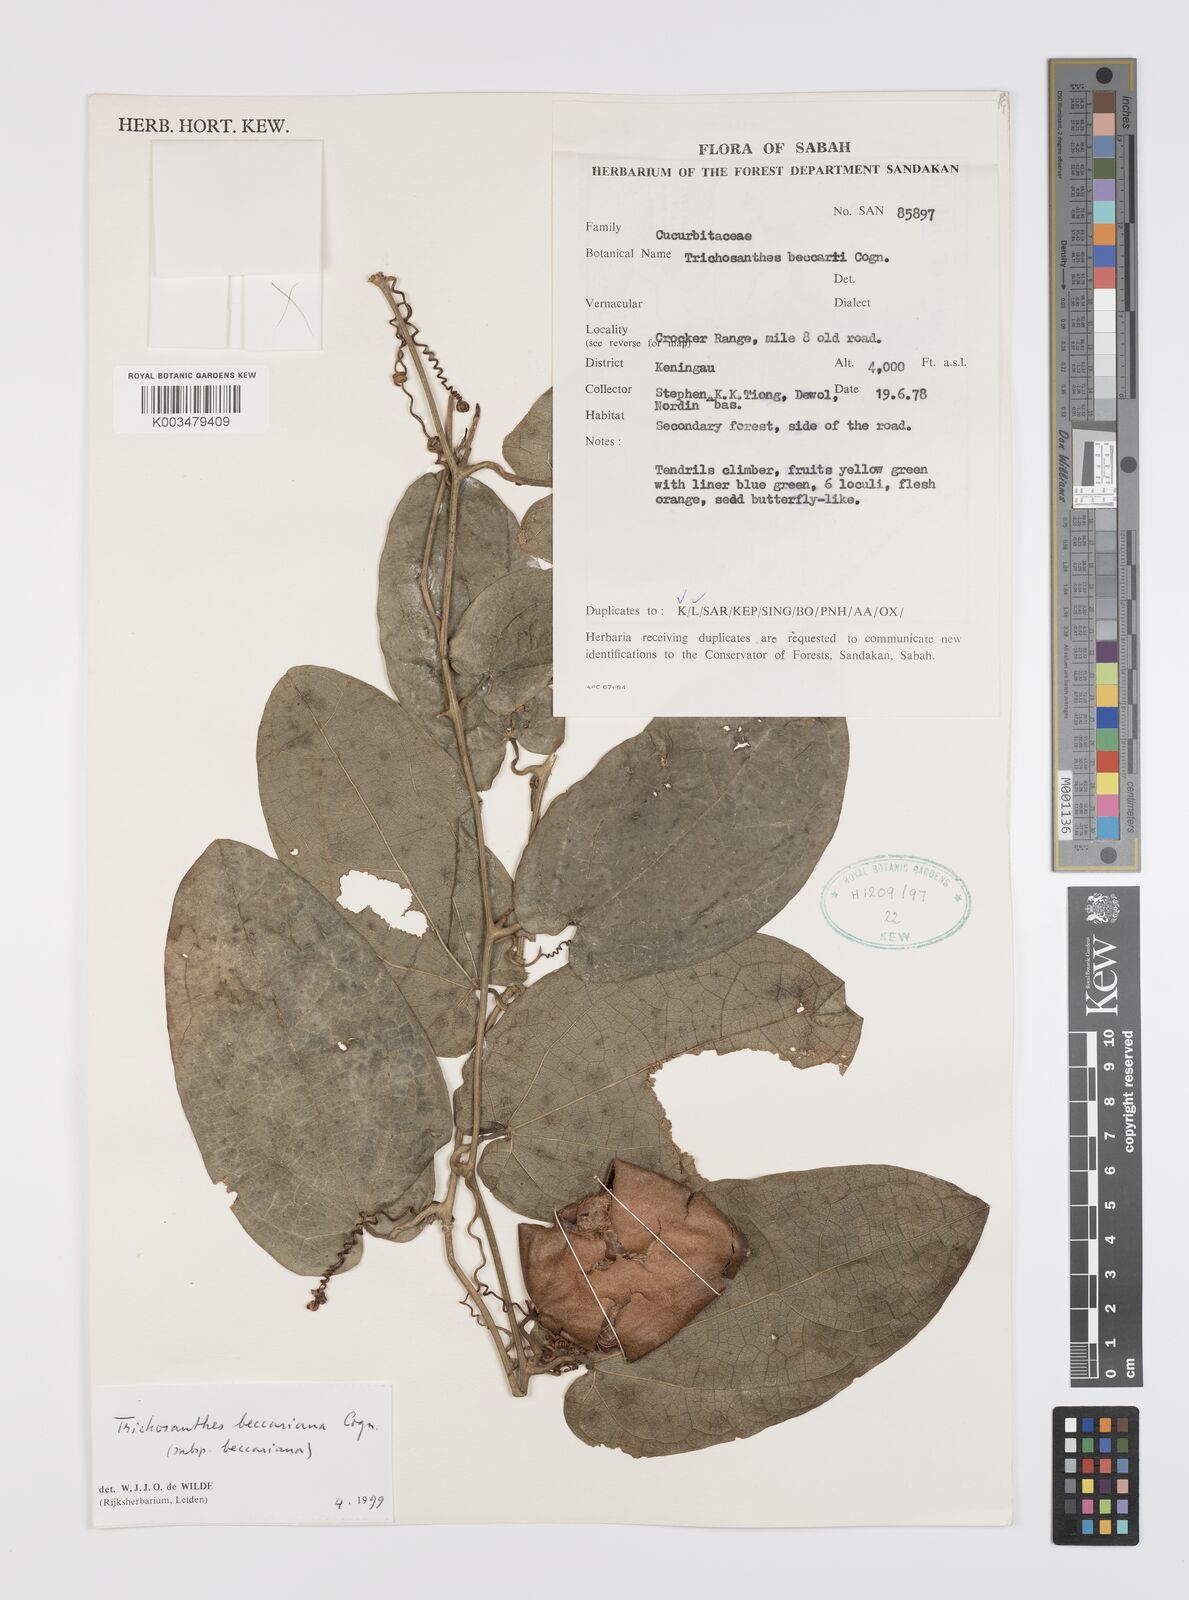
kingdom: Plantae
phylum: Tracheophyta
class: Magnoliopsida
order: Cucurbitales
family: Cucurbitaceae
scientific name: Cucurbitaceae
